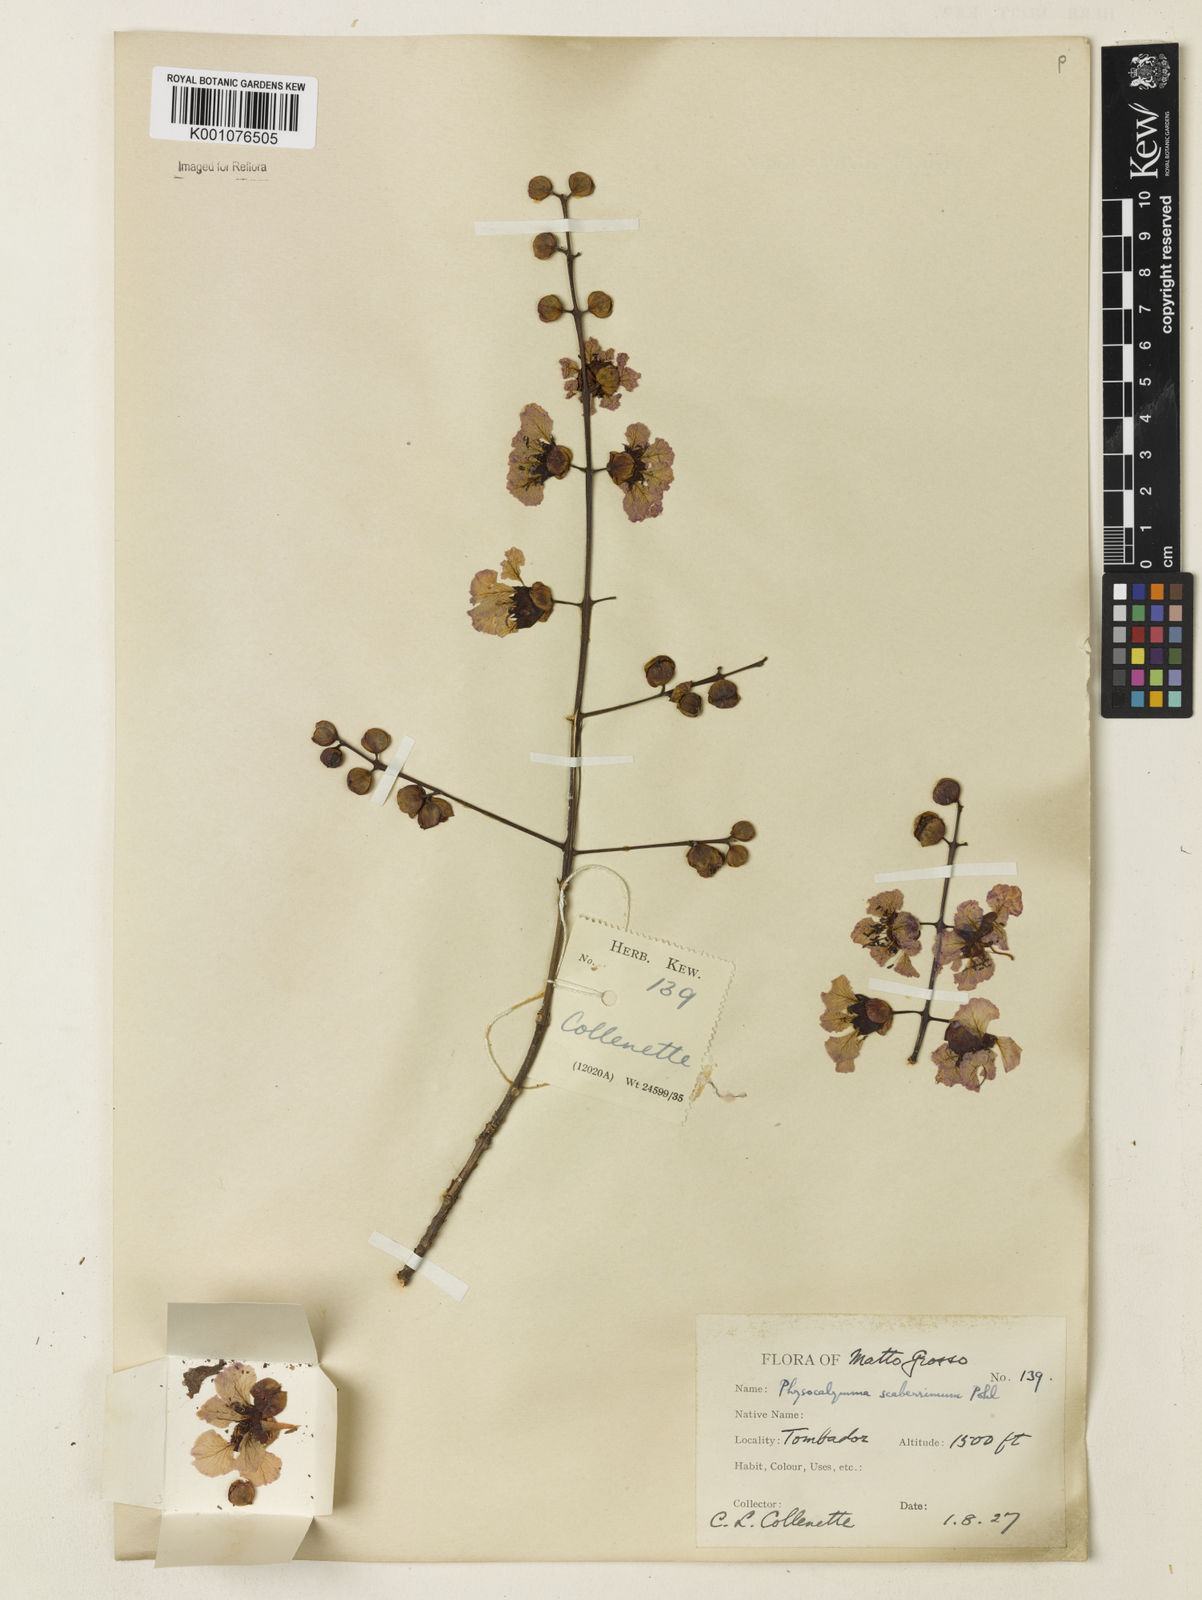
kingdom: Plantae
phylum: Tracheophyta
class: Magnoliopsida
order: Myrtales
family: Lythraceae
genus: Physocalymma
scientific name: Physocalymma scaberrimum
